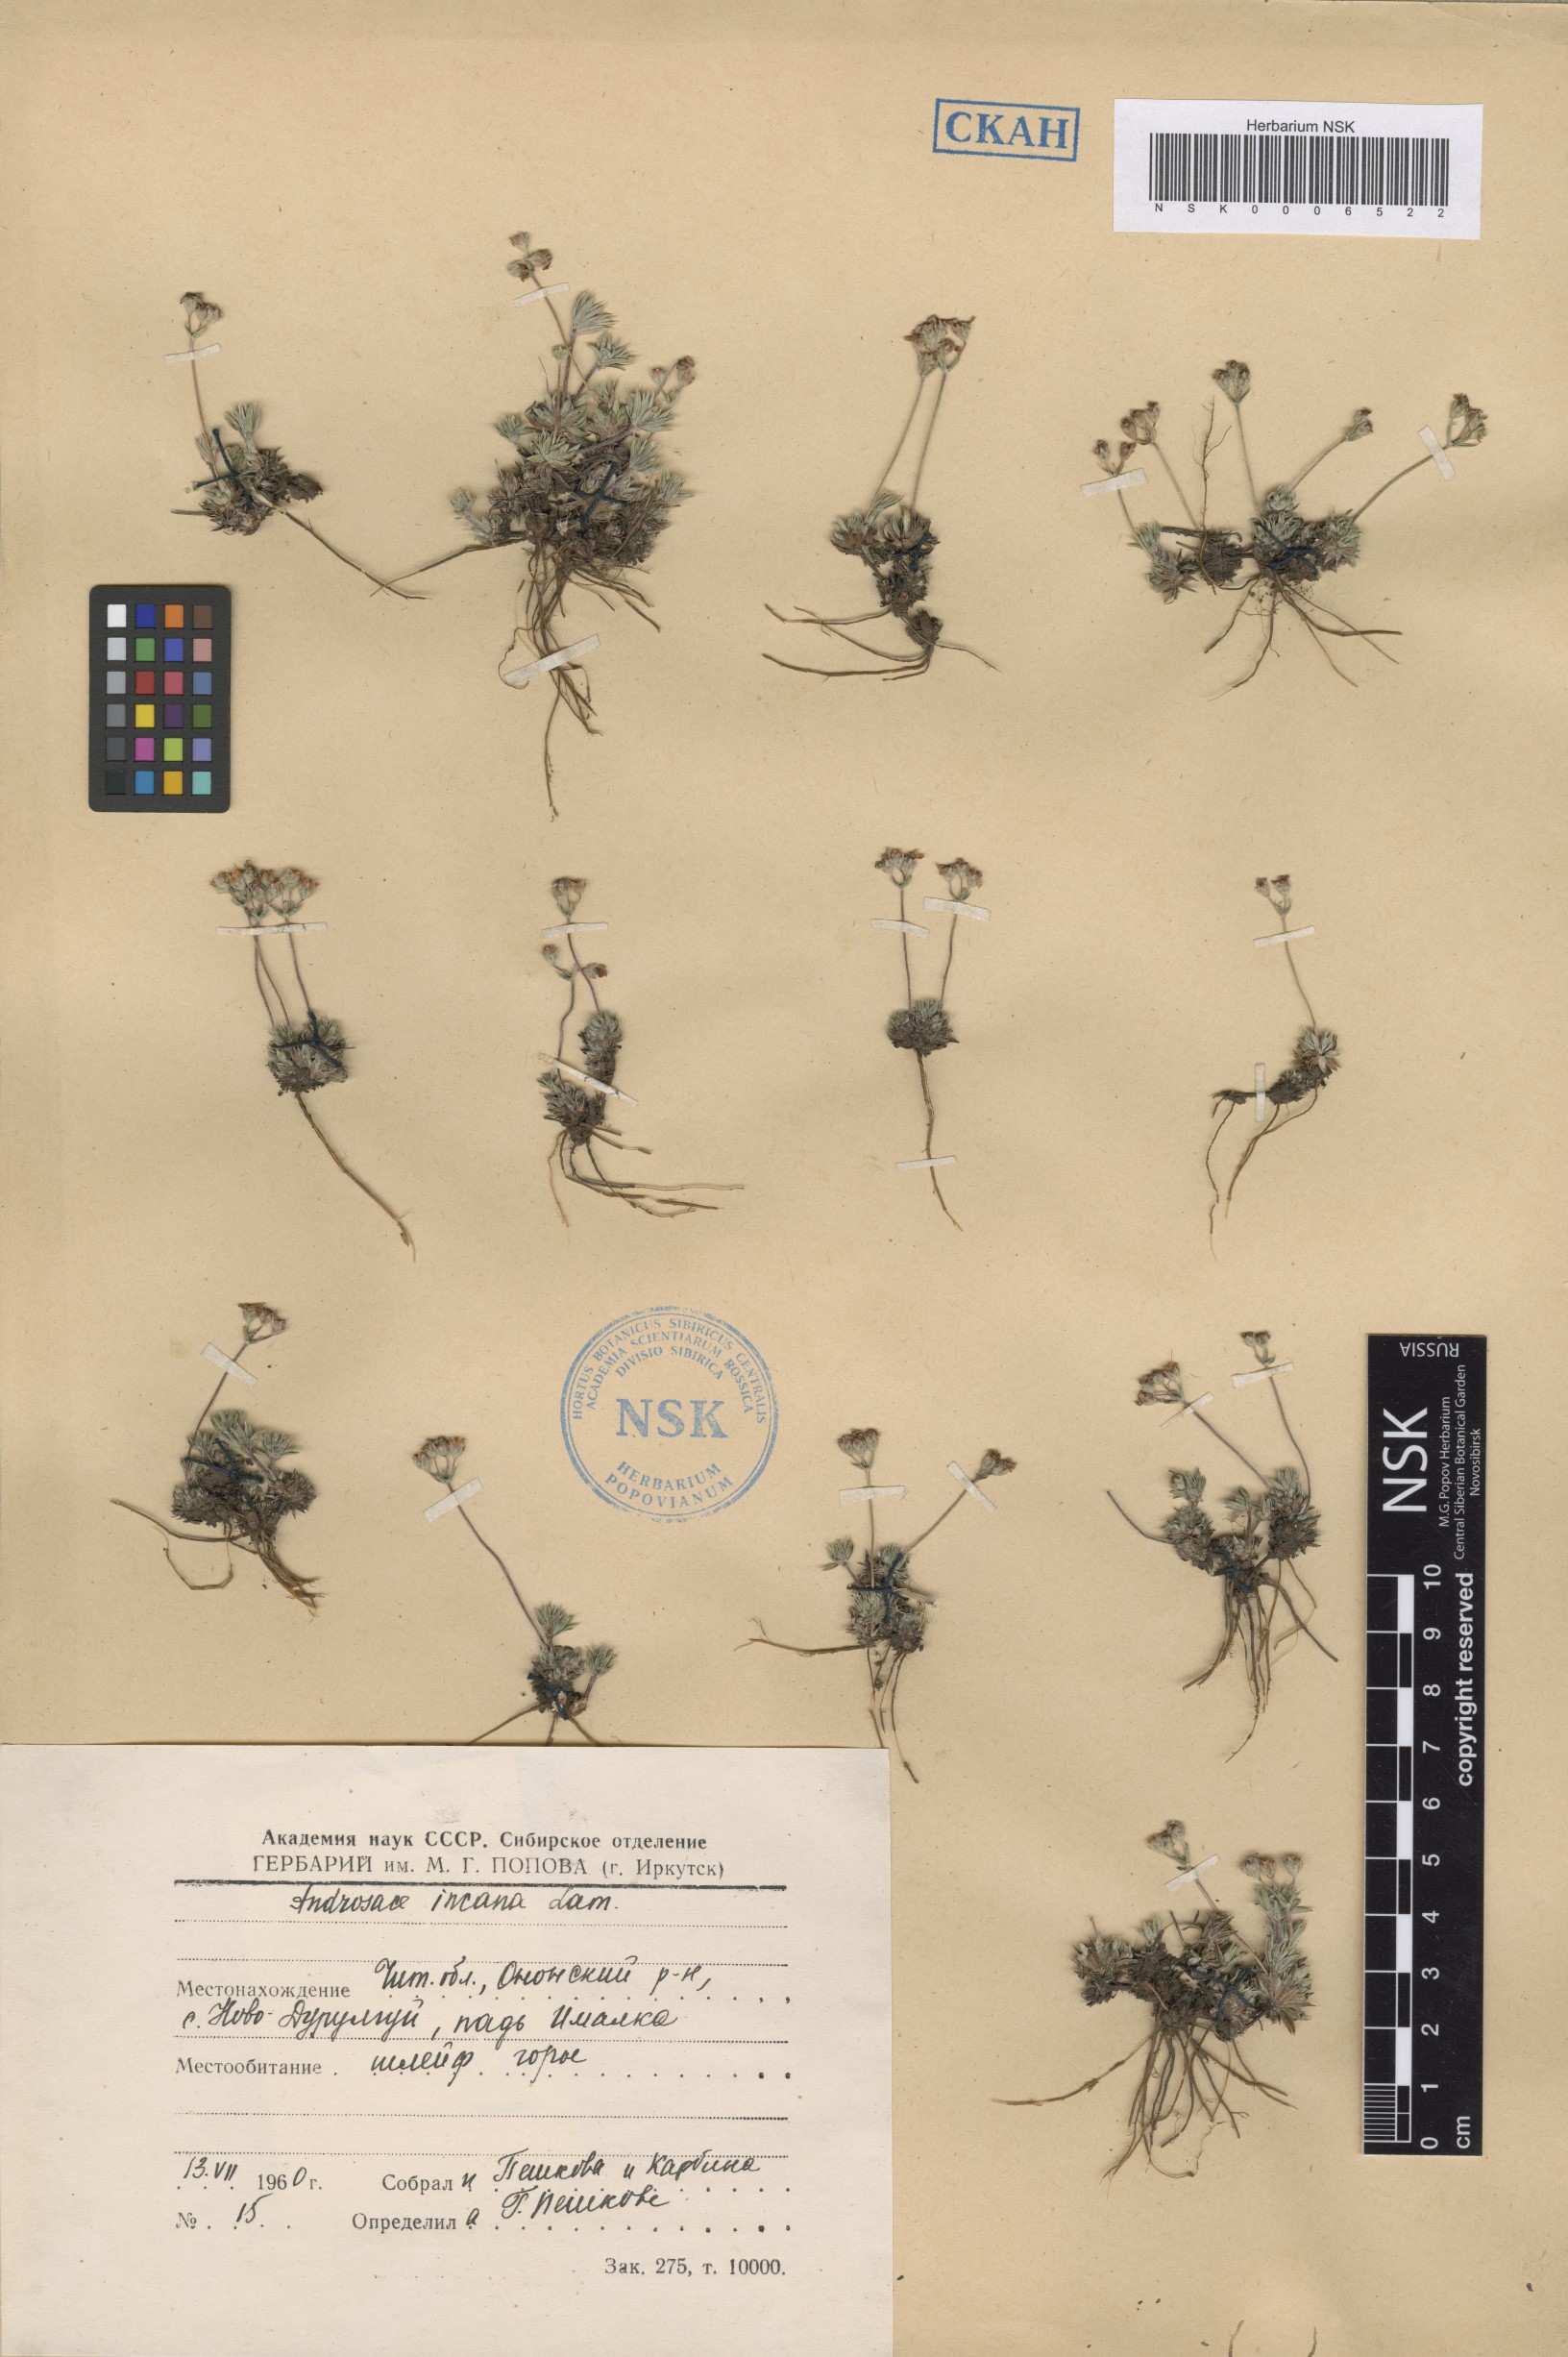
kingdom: Plantae
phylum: Tracheophyta
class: Magnoliopsida
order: Ericales
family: Primulaceae
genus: Androsace
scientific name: Androsace incana
